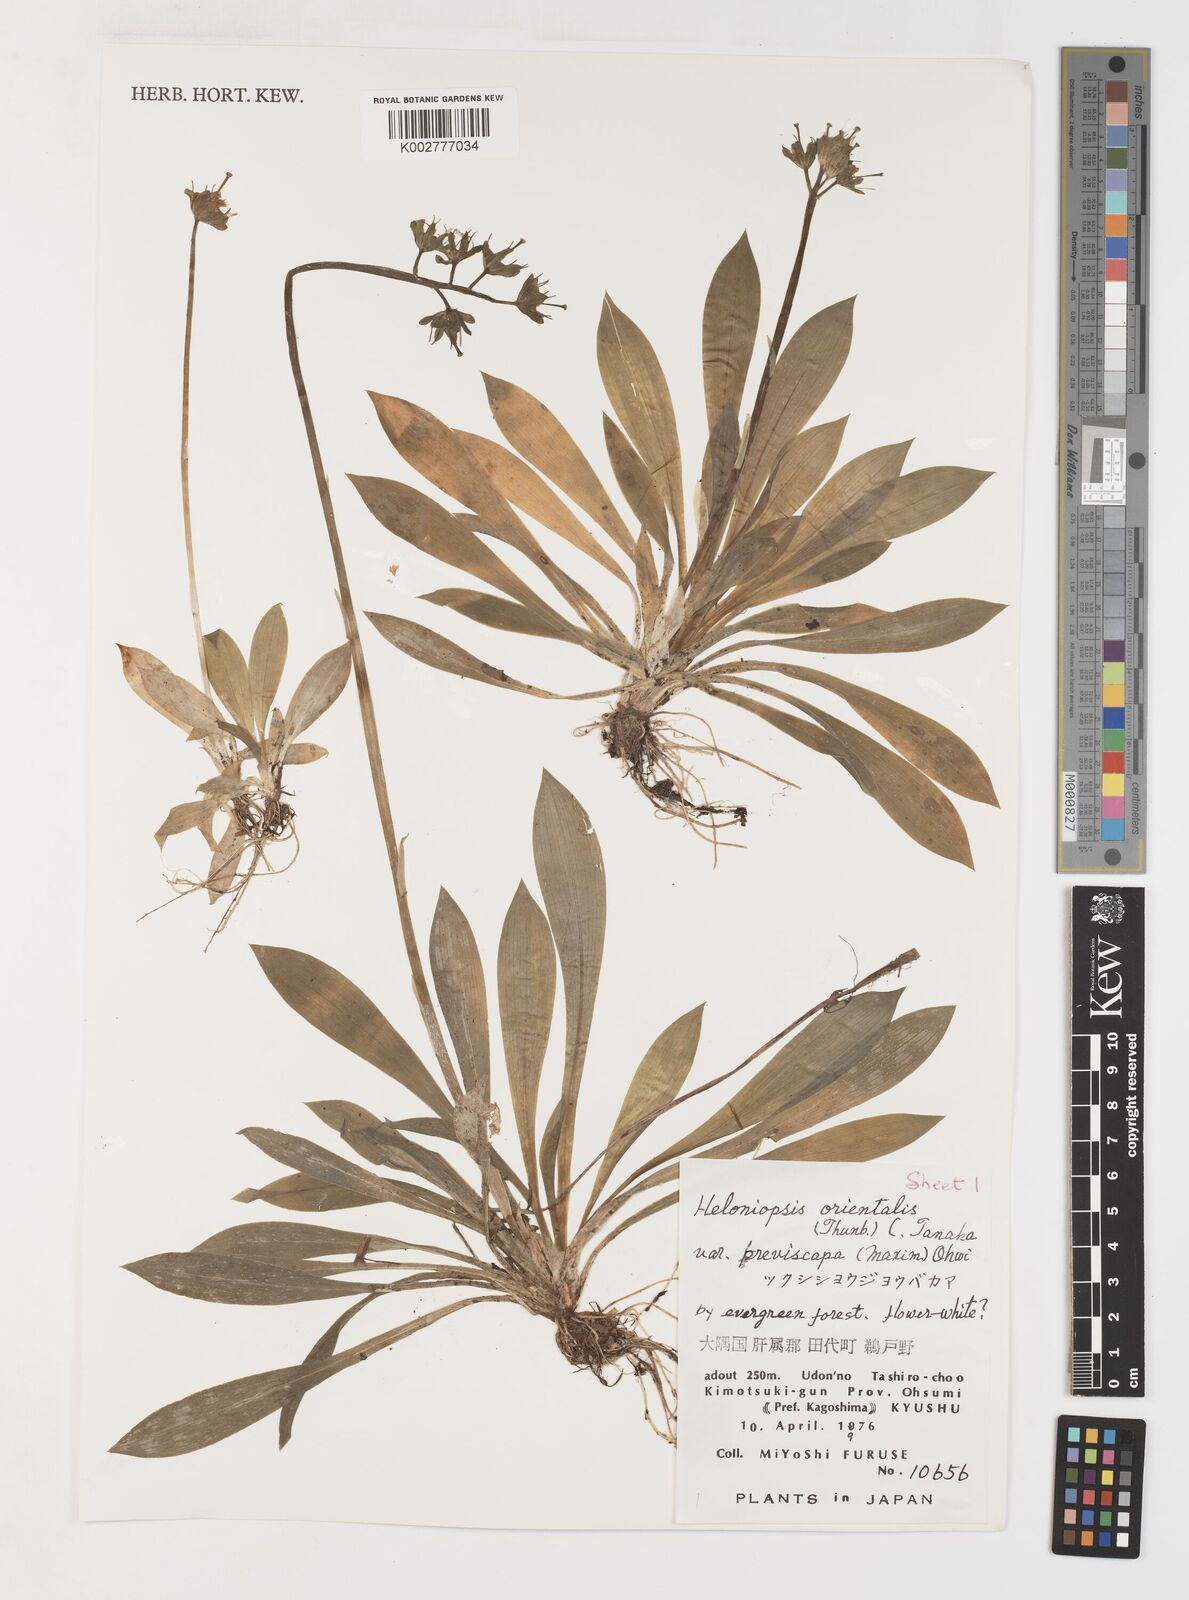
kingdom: Plantae
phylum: Tracheophyta
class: Liliopsida
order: Liliales
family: Melanthiaceae
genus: Helonias
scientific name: Helonias orientalis
